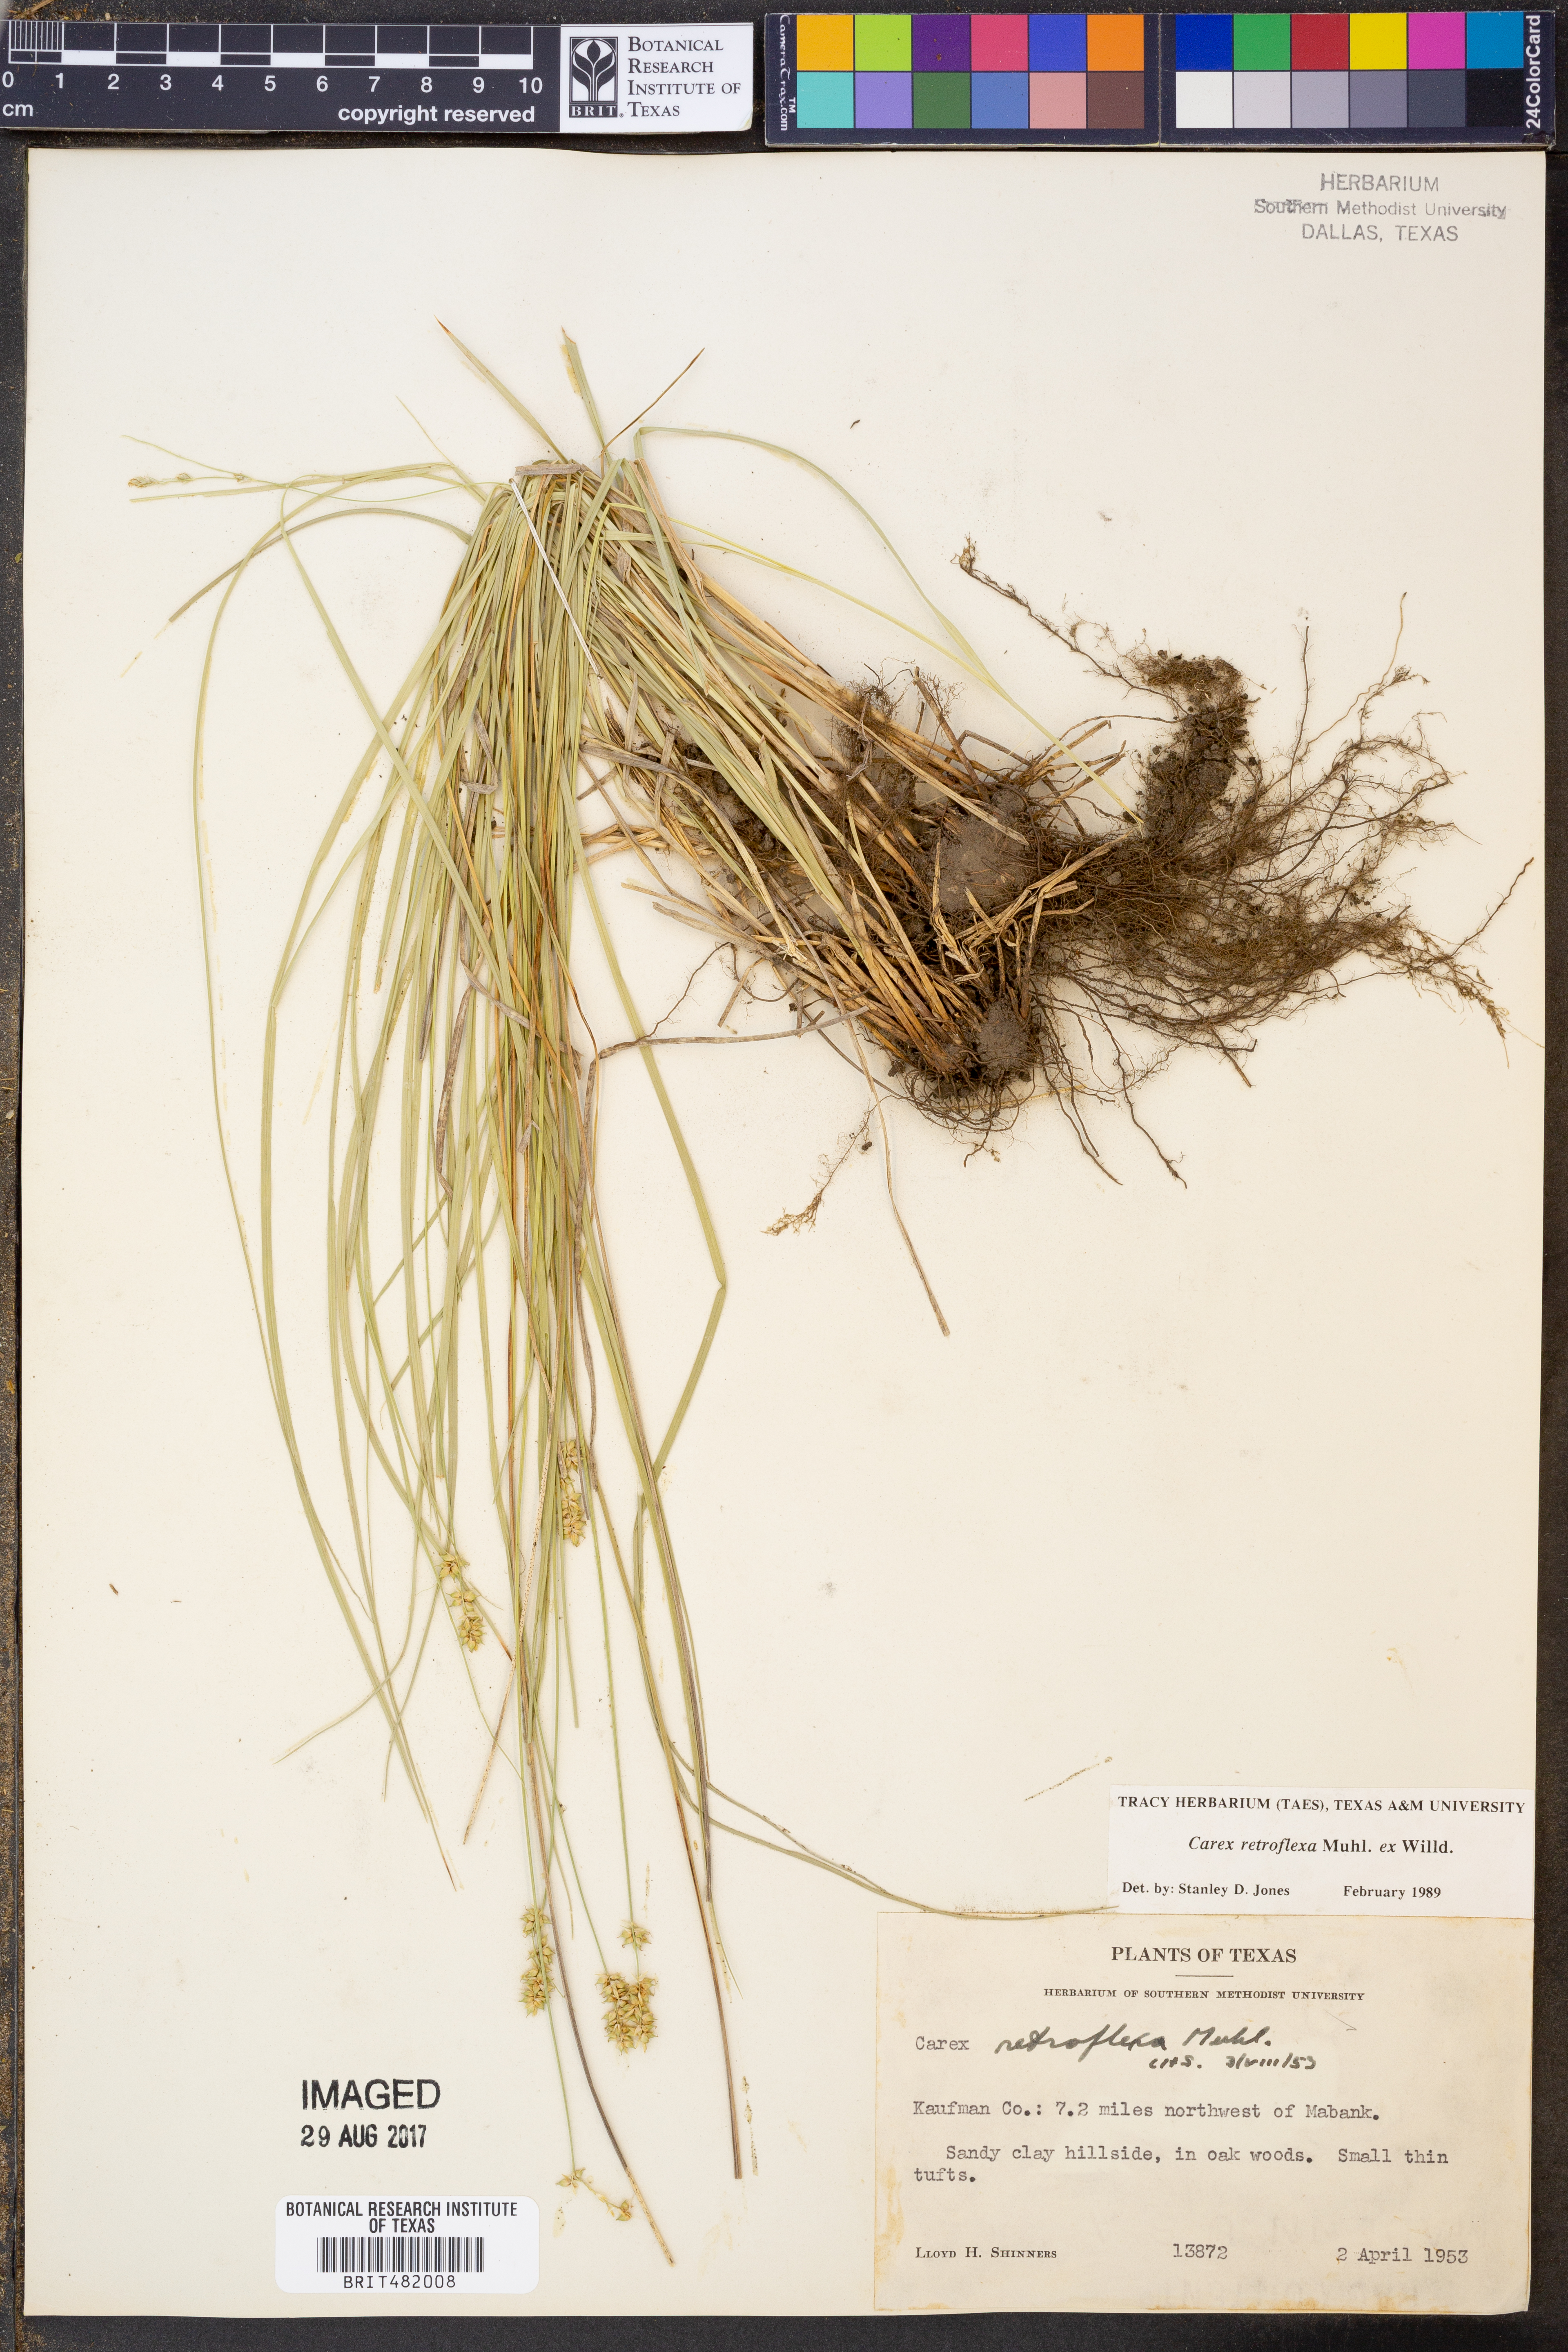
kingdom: Plantae
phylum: Tracheophyta
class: Liliopsida
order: Poales
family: Cyperaceae
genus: Carex
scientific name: Carex retroflexa
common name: Reflexed sedge
